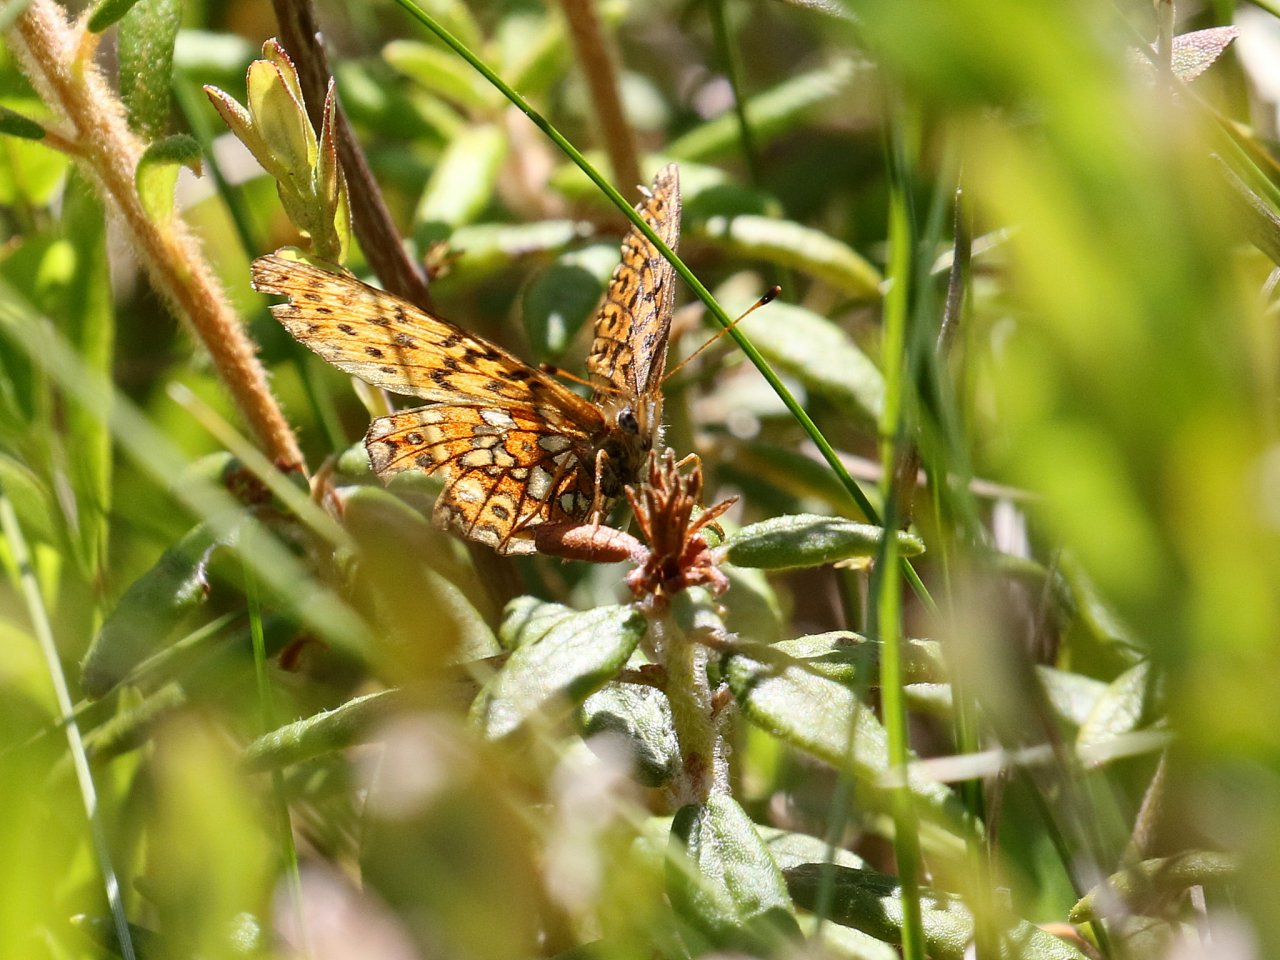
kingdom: Animalia
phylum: Arthropoda
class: Insecta
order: Lepidoptera
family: Nymphalidae
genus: Boloria
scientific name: Boloria eunomia
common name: Bog Fritillary
